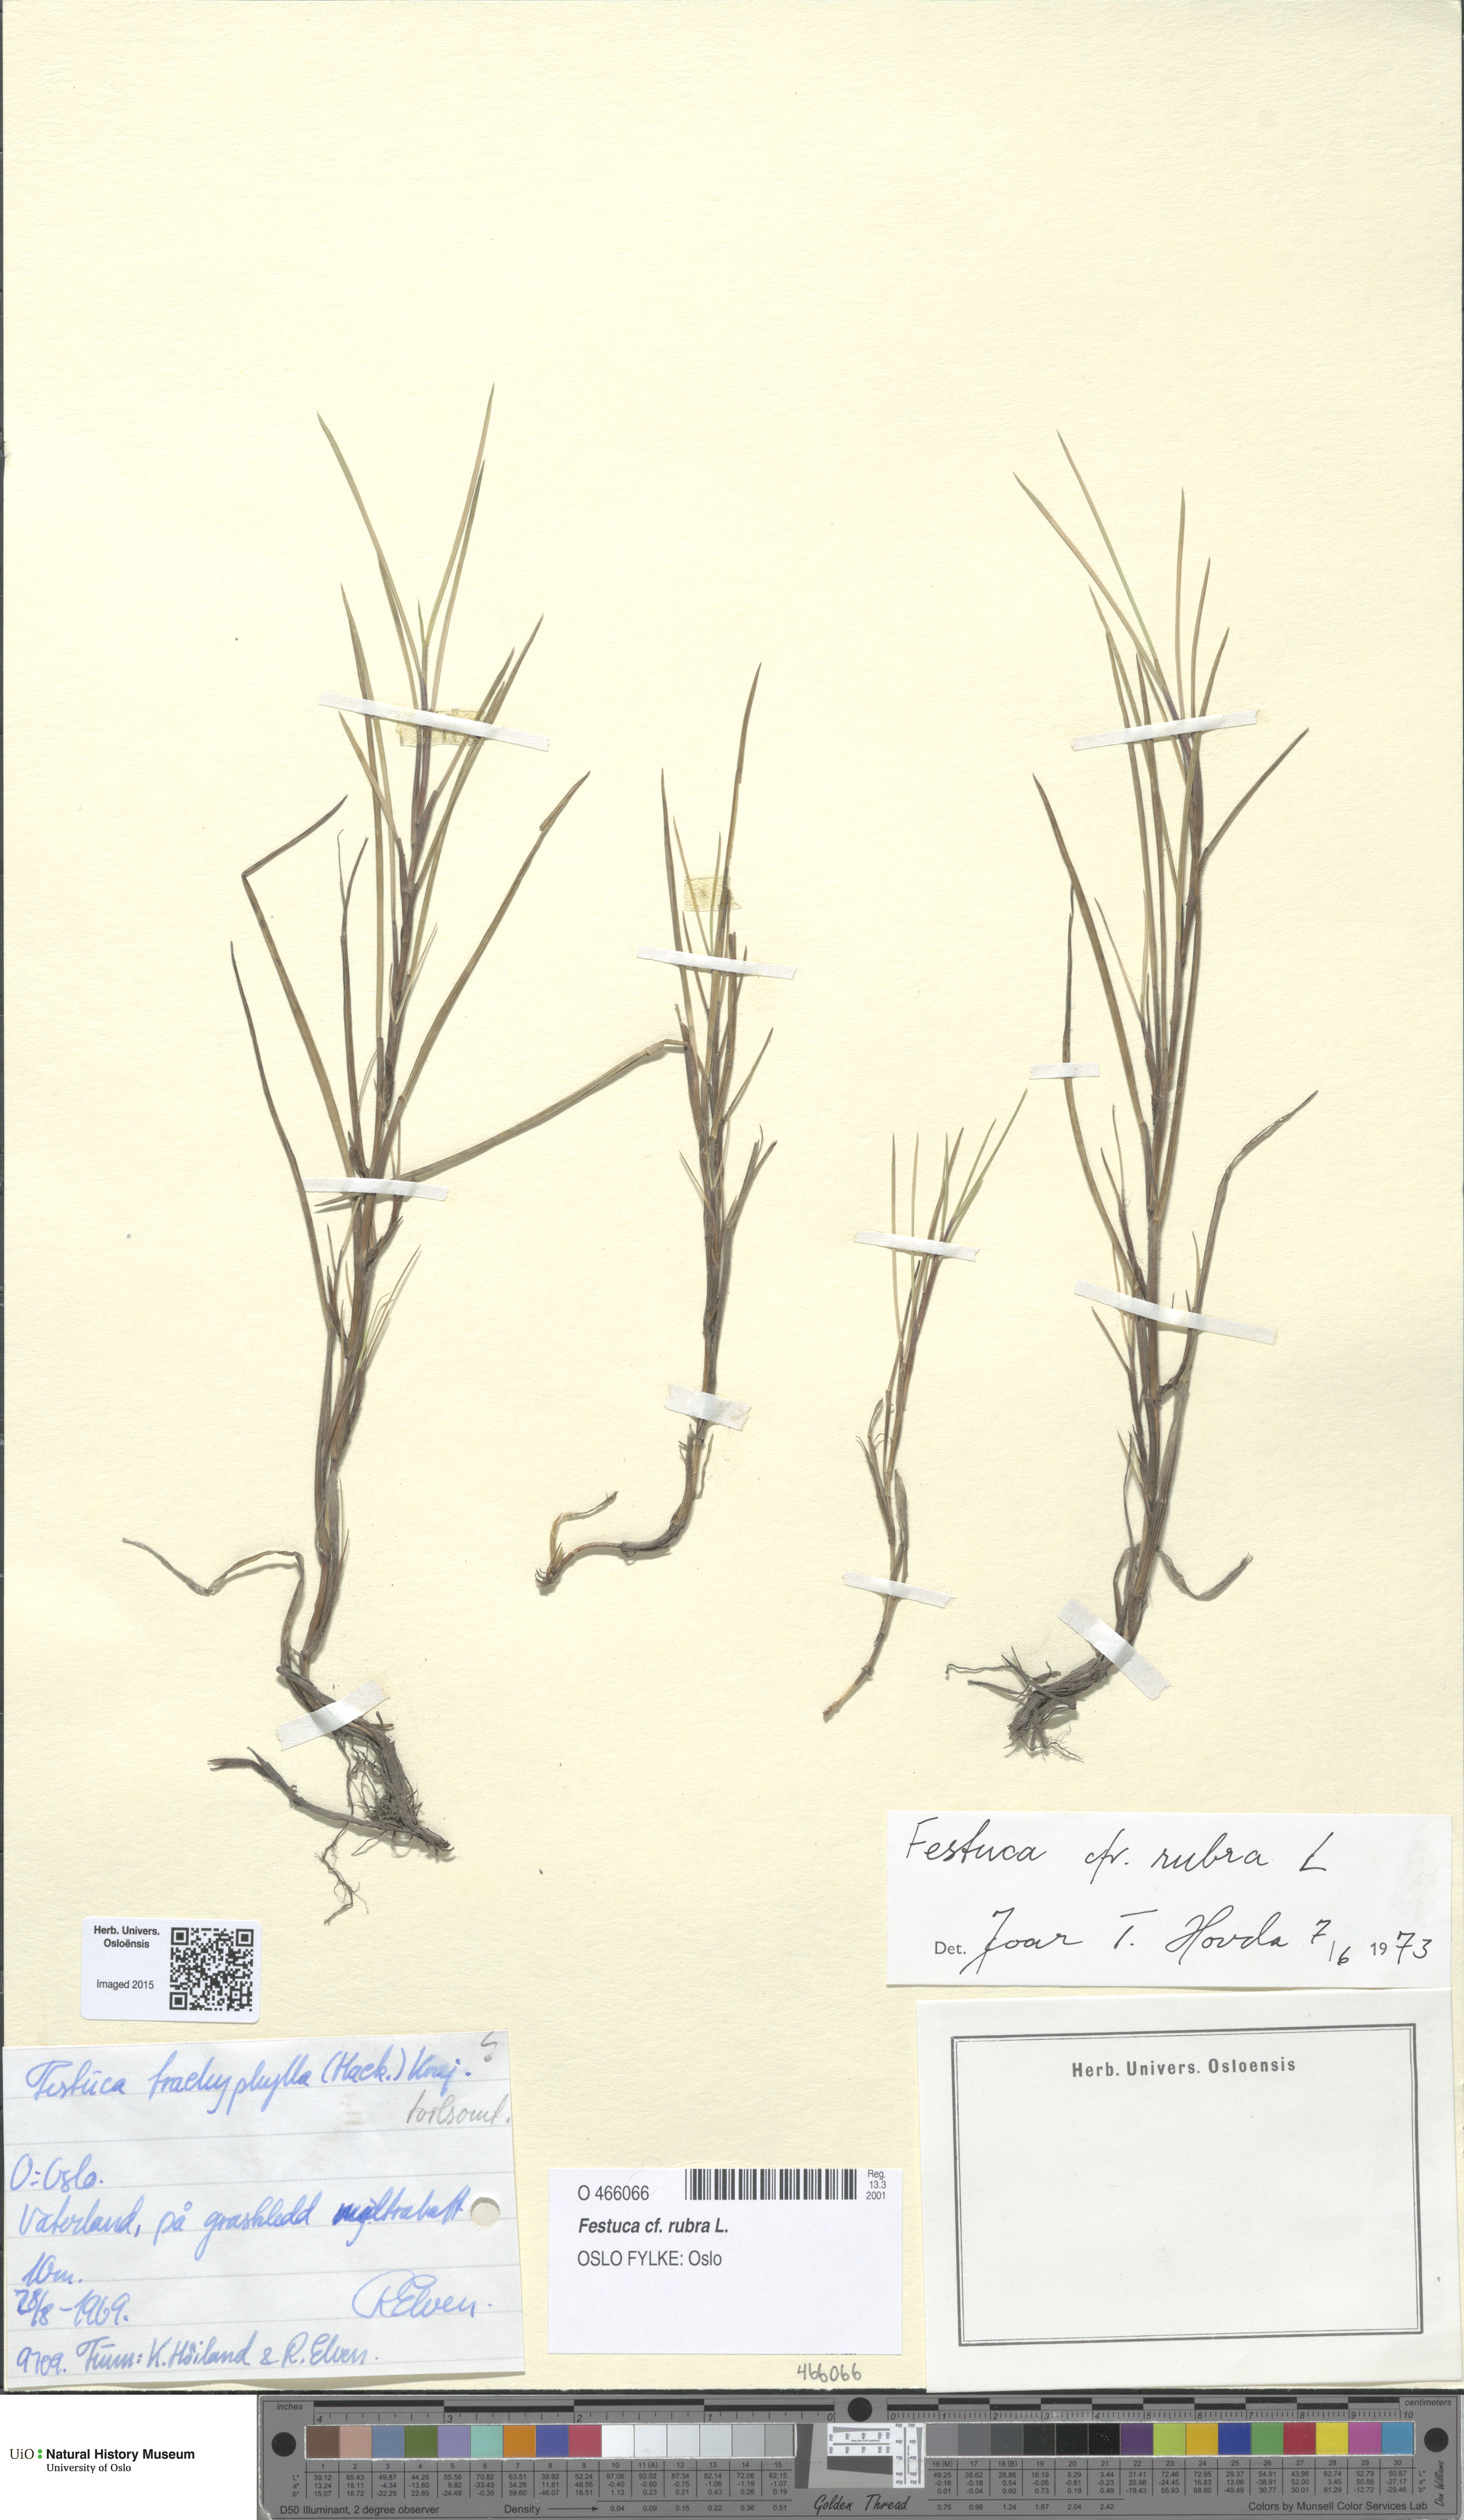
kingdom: Plantae
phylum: Tracheophyta
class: Liliopsida
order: Poales
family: Poaceae
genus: Festuca
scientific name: Festuca rubra
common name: Red fescue
